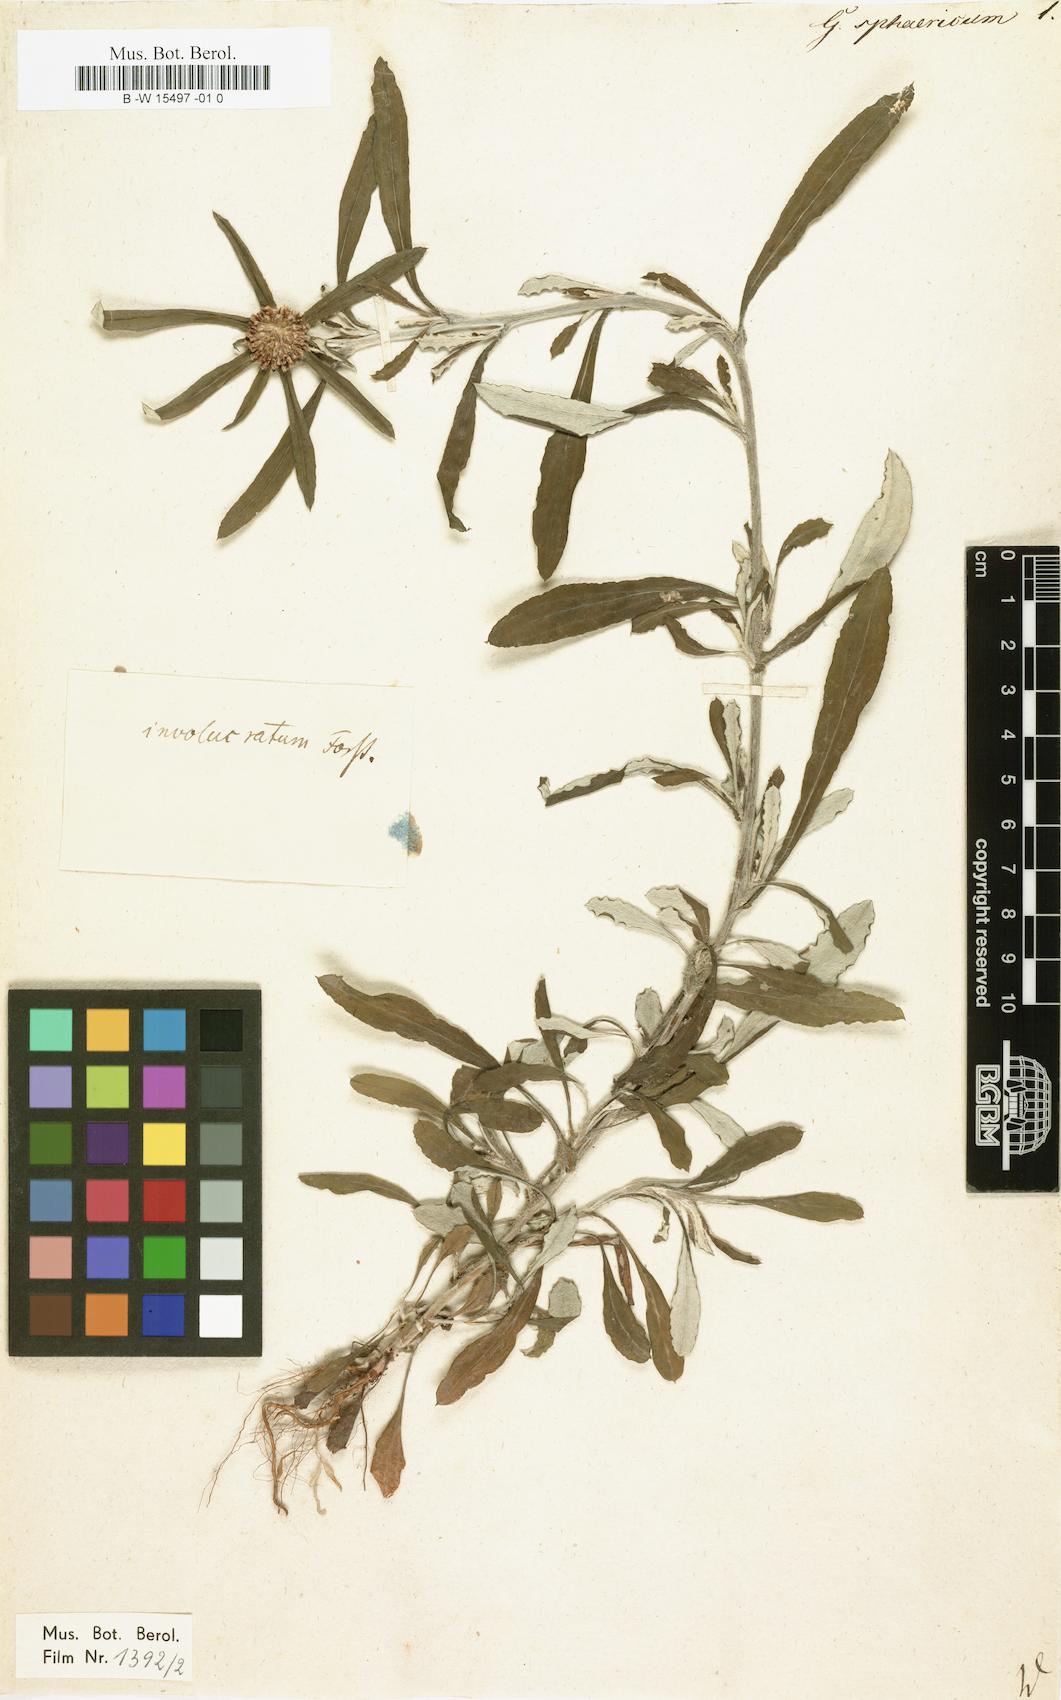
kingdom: Plantae
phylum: Tracheophyta
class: Magnoliopsida
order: Asterales
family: Asteraceae
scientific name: Asteraceae
